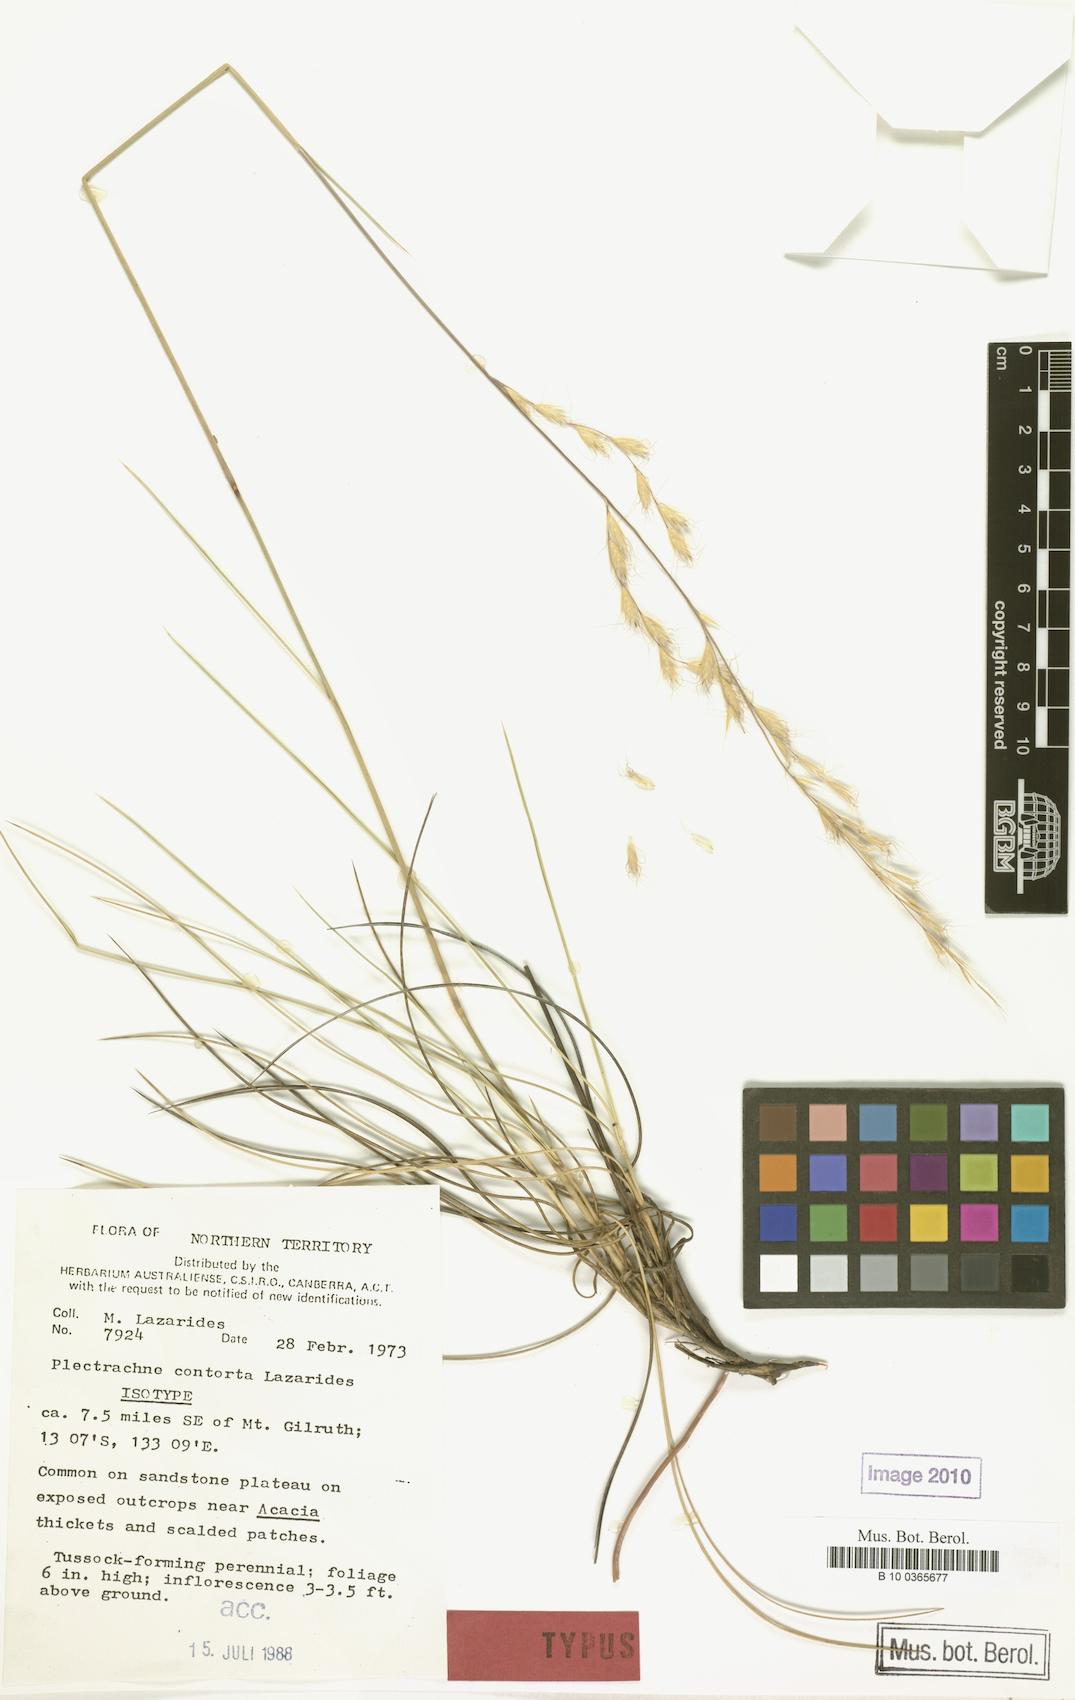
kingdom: Plantae
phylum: Tracheophyta
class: Liliopsida
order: Poales
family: Poaceae
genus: Triodia
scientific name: Triodia contorta
